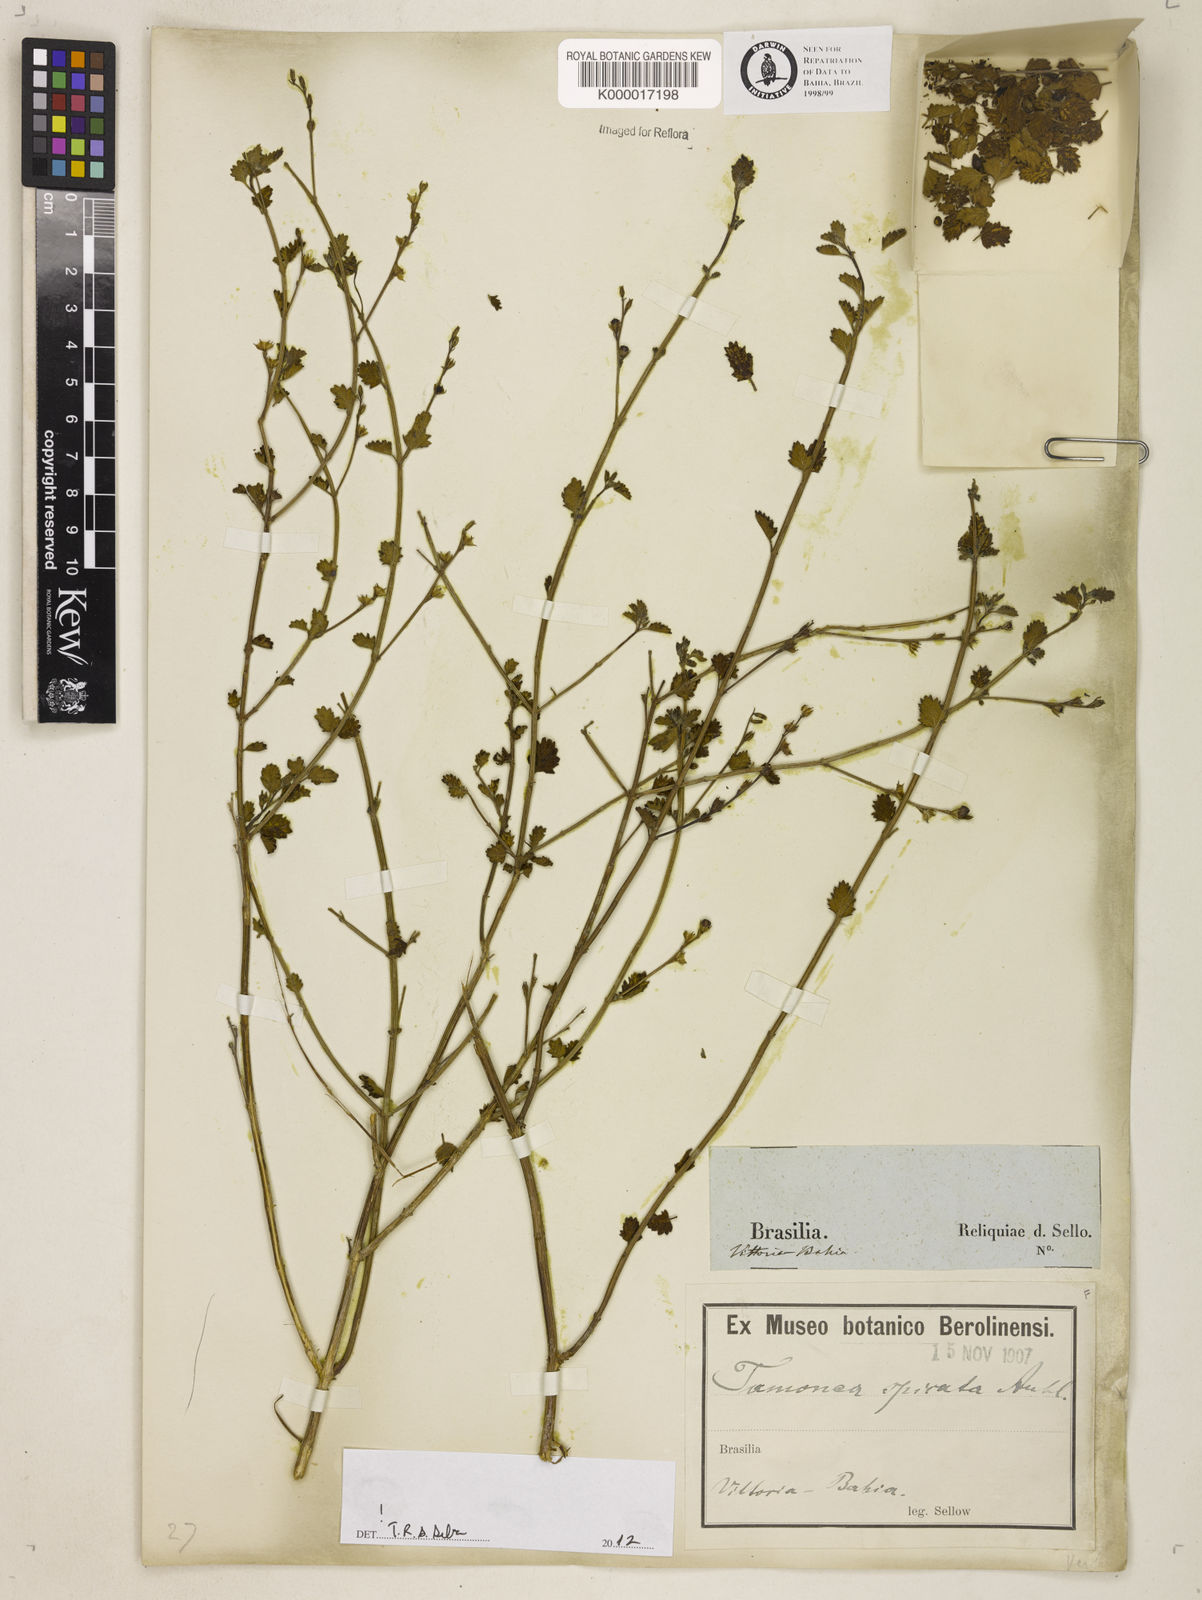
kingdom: Plantae
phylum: Tracheophyta
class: Magnoliopsida
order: Lamiales
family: Verbenaceae
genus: Tamonea
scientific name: Tamonea spicata
